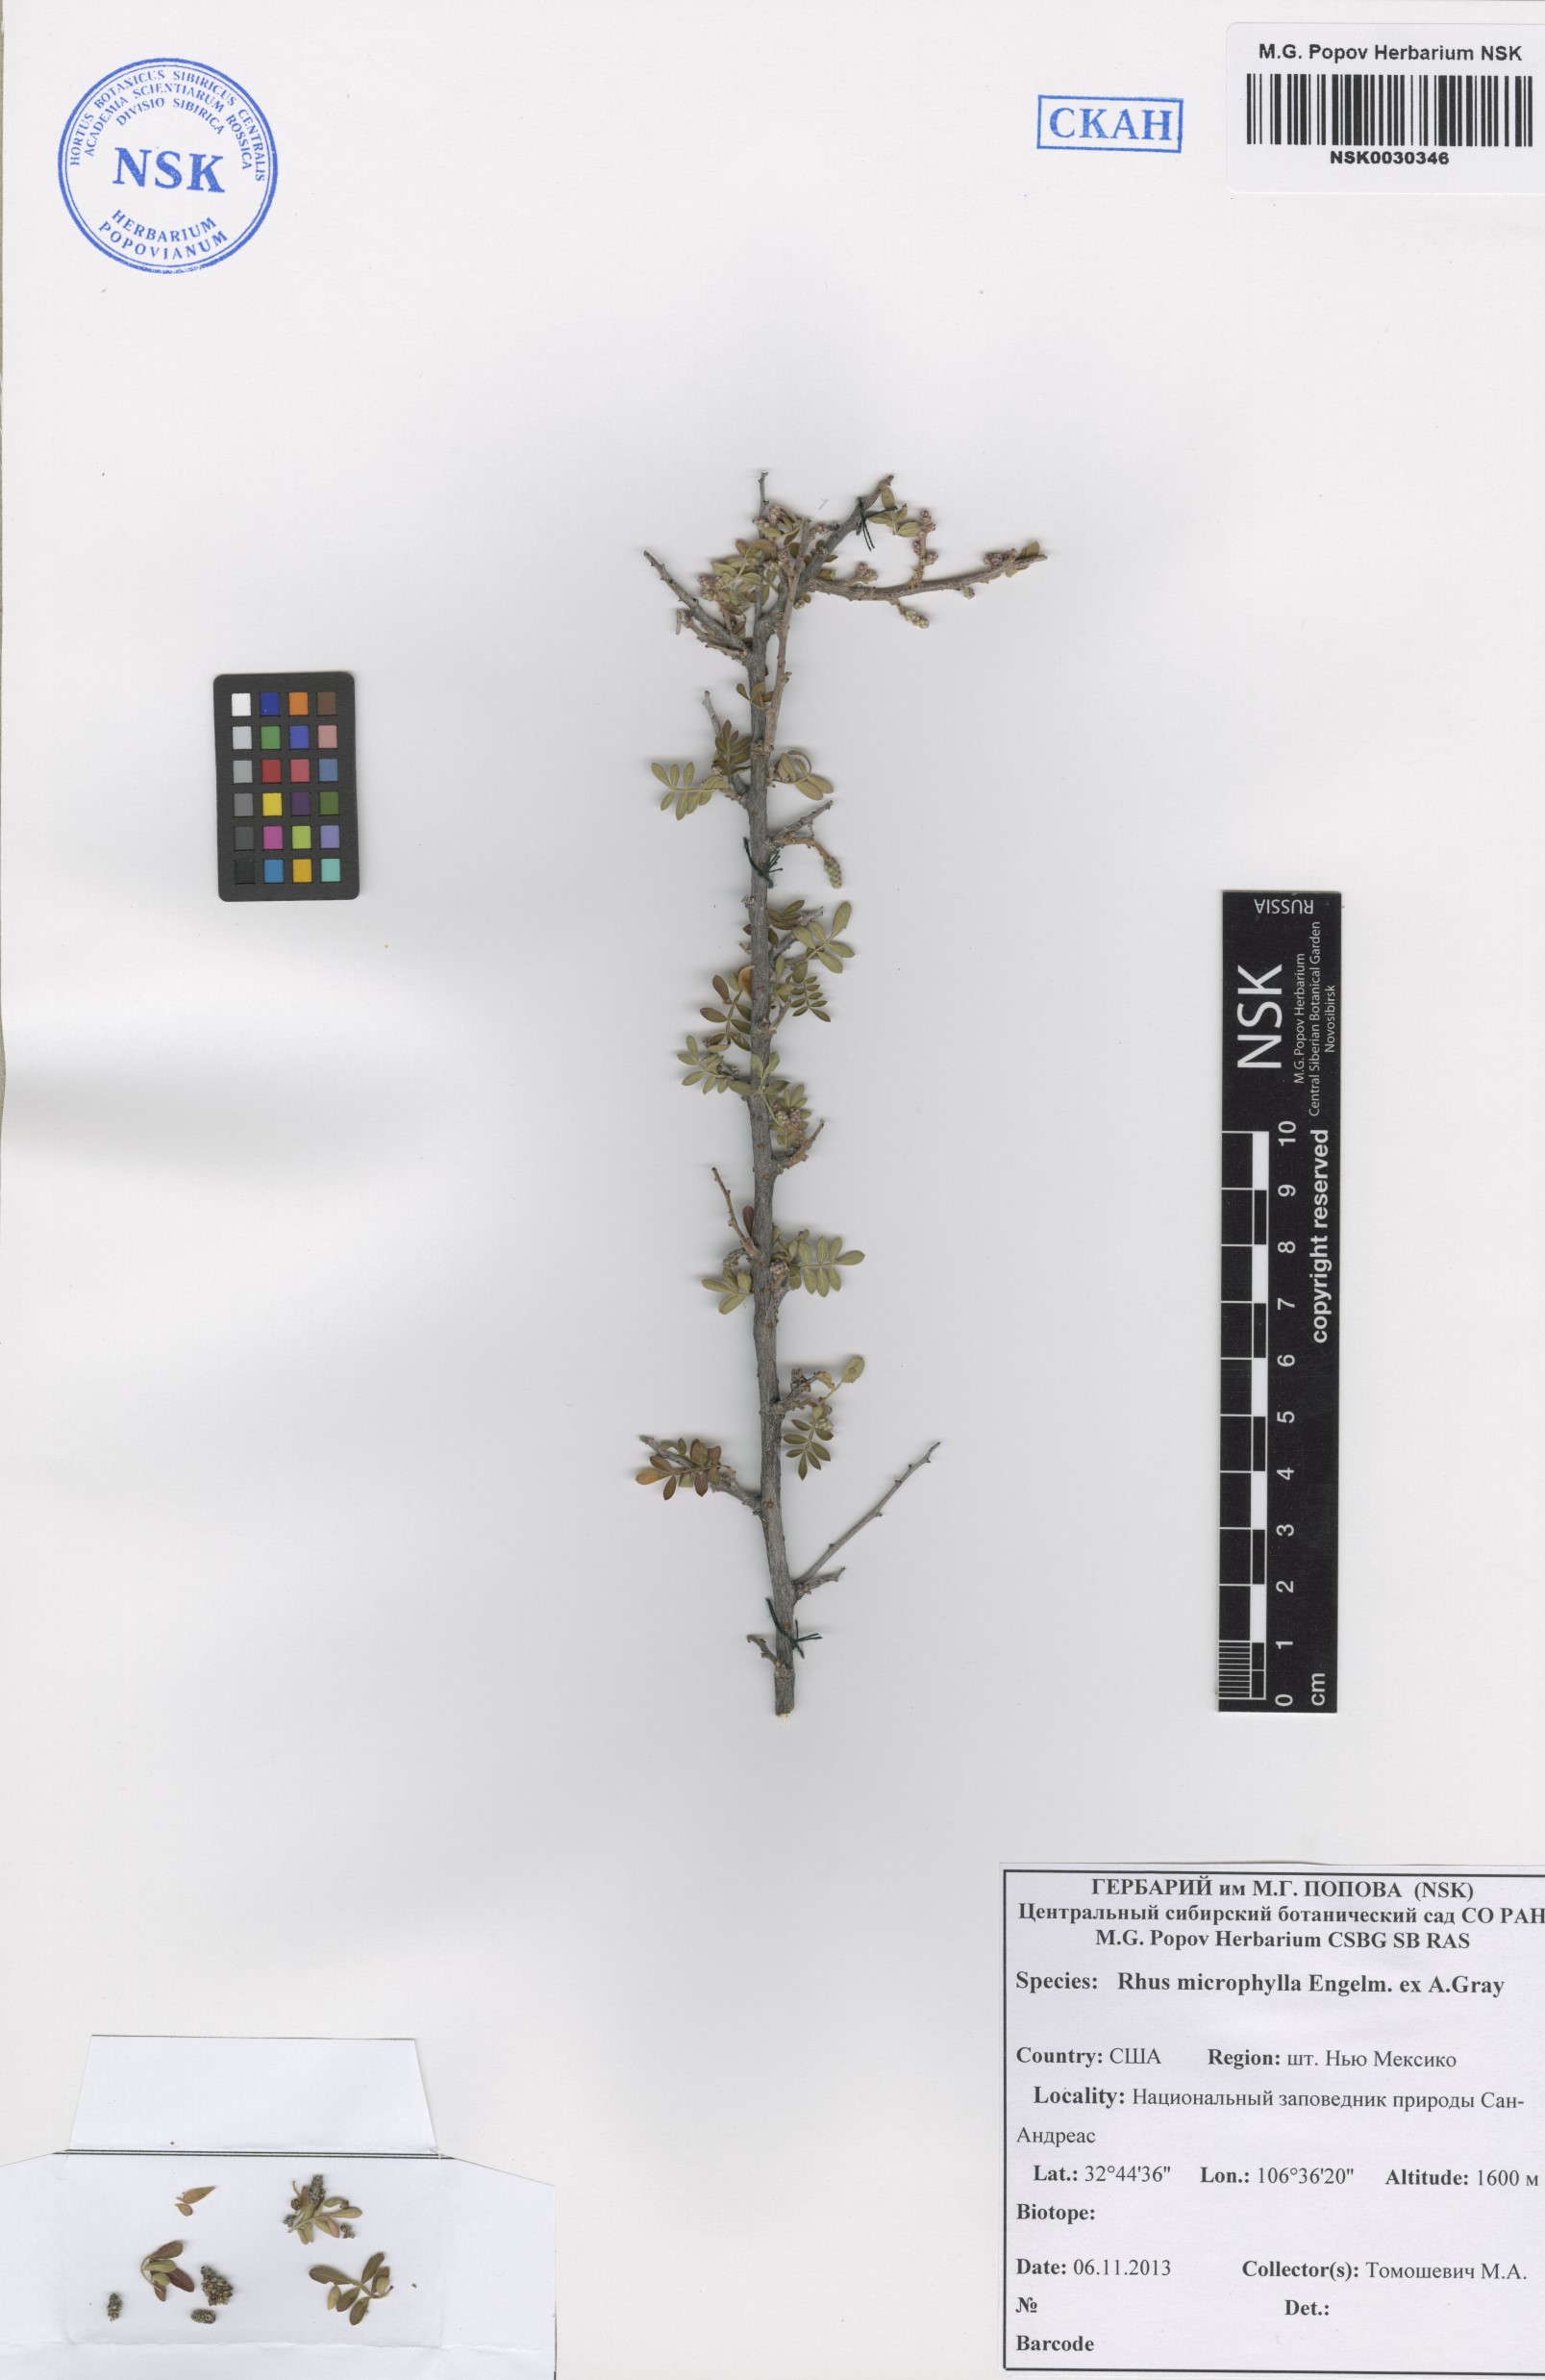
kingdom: Plantae
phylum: Tracheophyta
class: Magnoliopsida
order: Sapindales
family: Anacardiaceae
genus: Rhus
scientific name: Rhus microphylla
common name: Desert sumac
